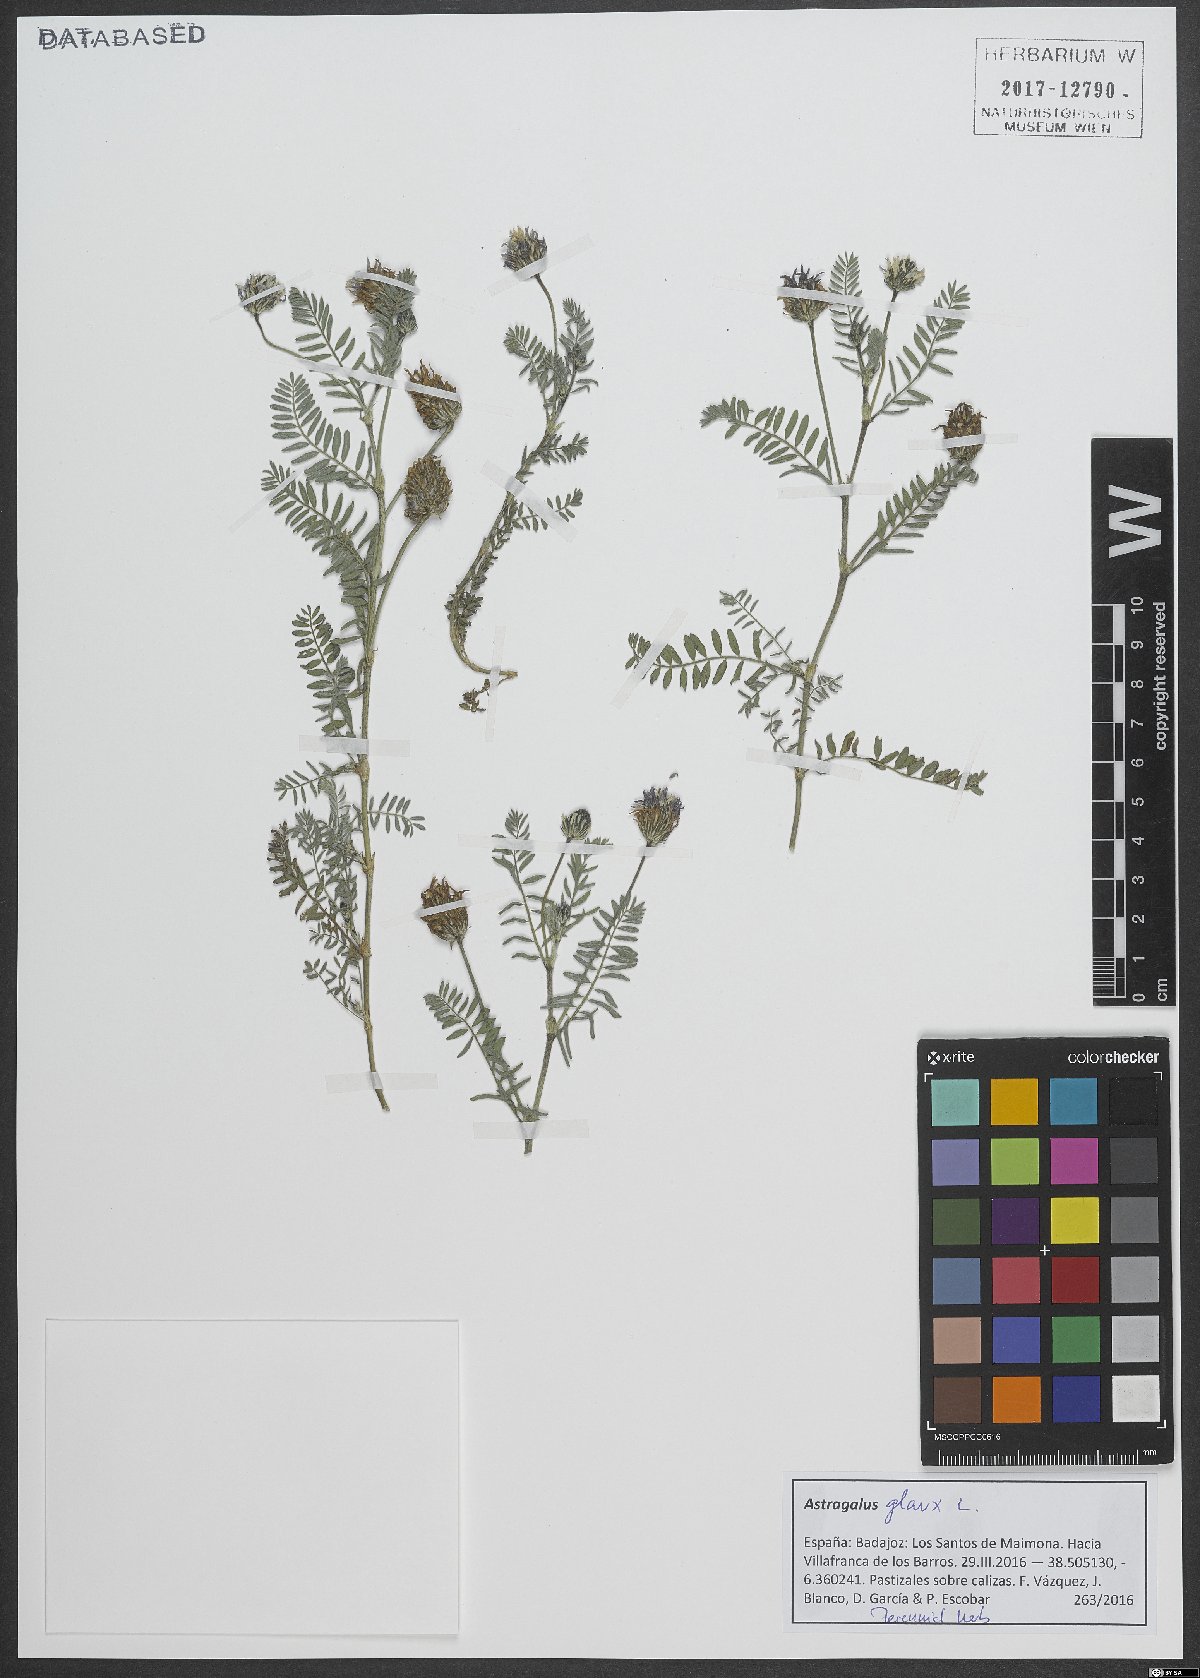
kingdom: Plantae
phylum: Tracheophyta
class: Magnoliopsida
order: Fabales
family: Fabaceae
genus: Astragalus
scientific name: Astragalus glaux
